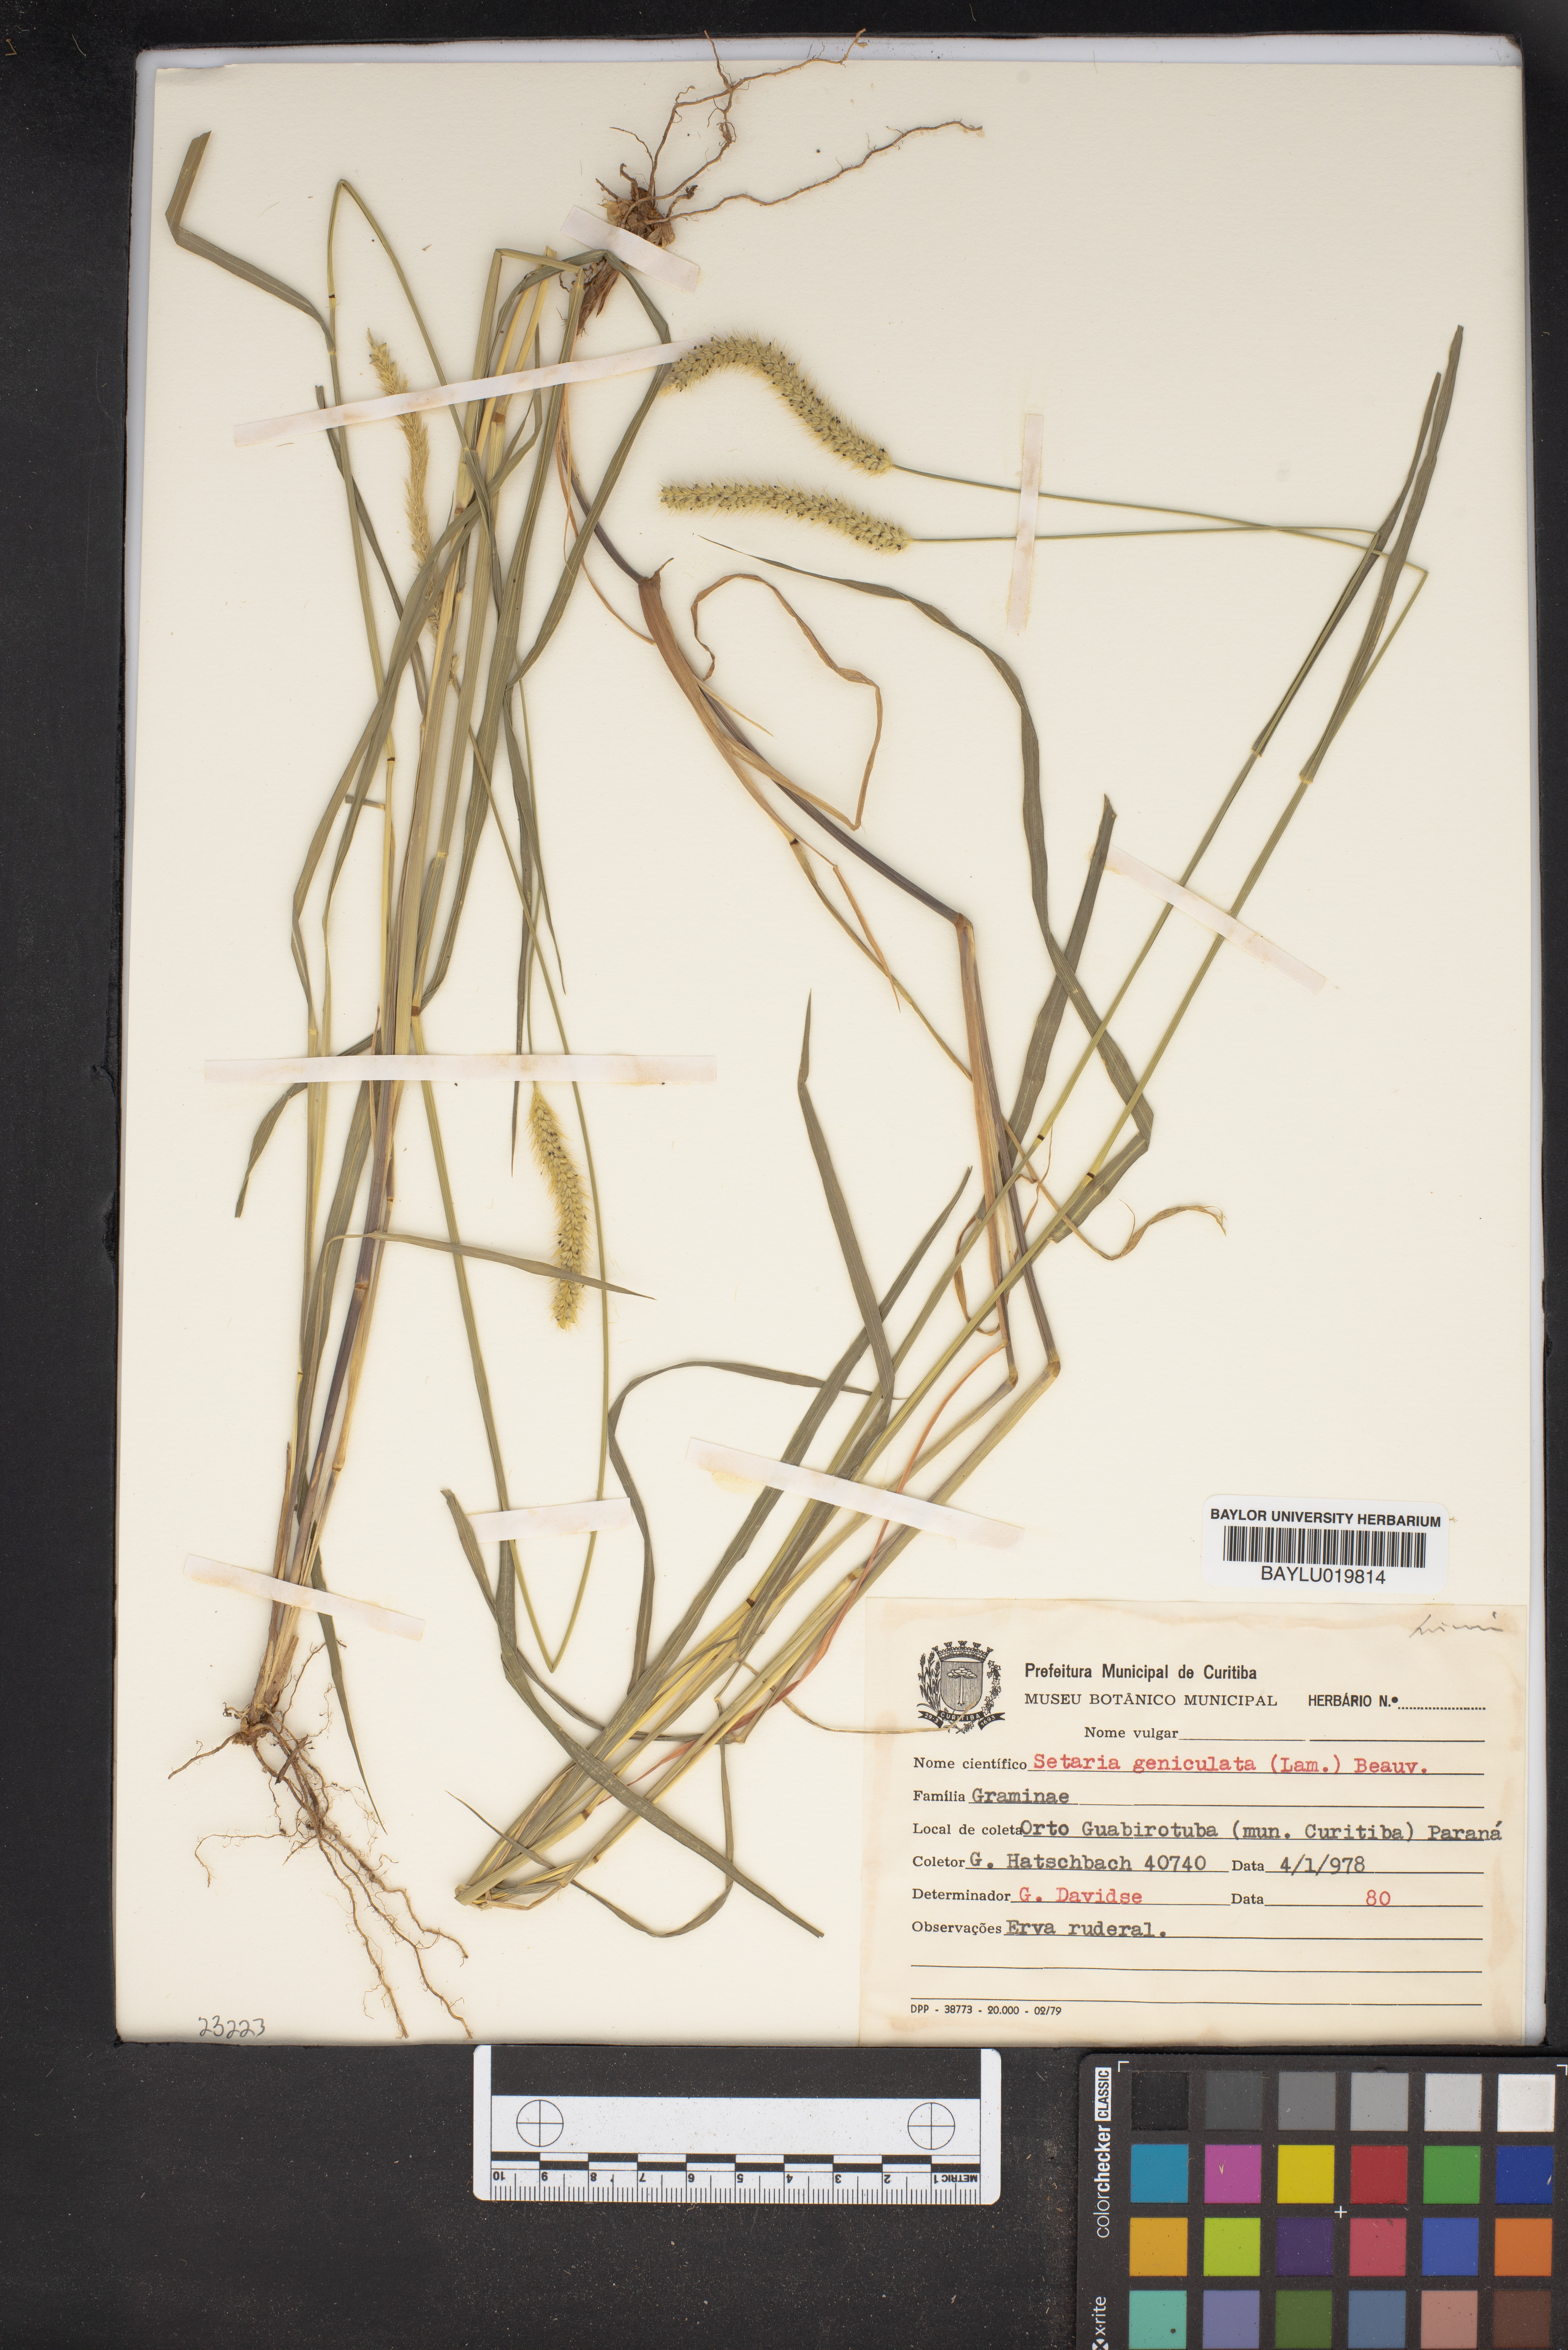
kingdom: Plantae
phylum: Tracheophyta
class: Liliopsida
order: Poales
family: Poaceae
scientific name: Poaceae
